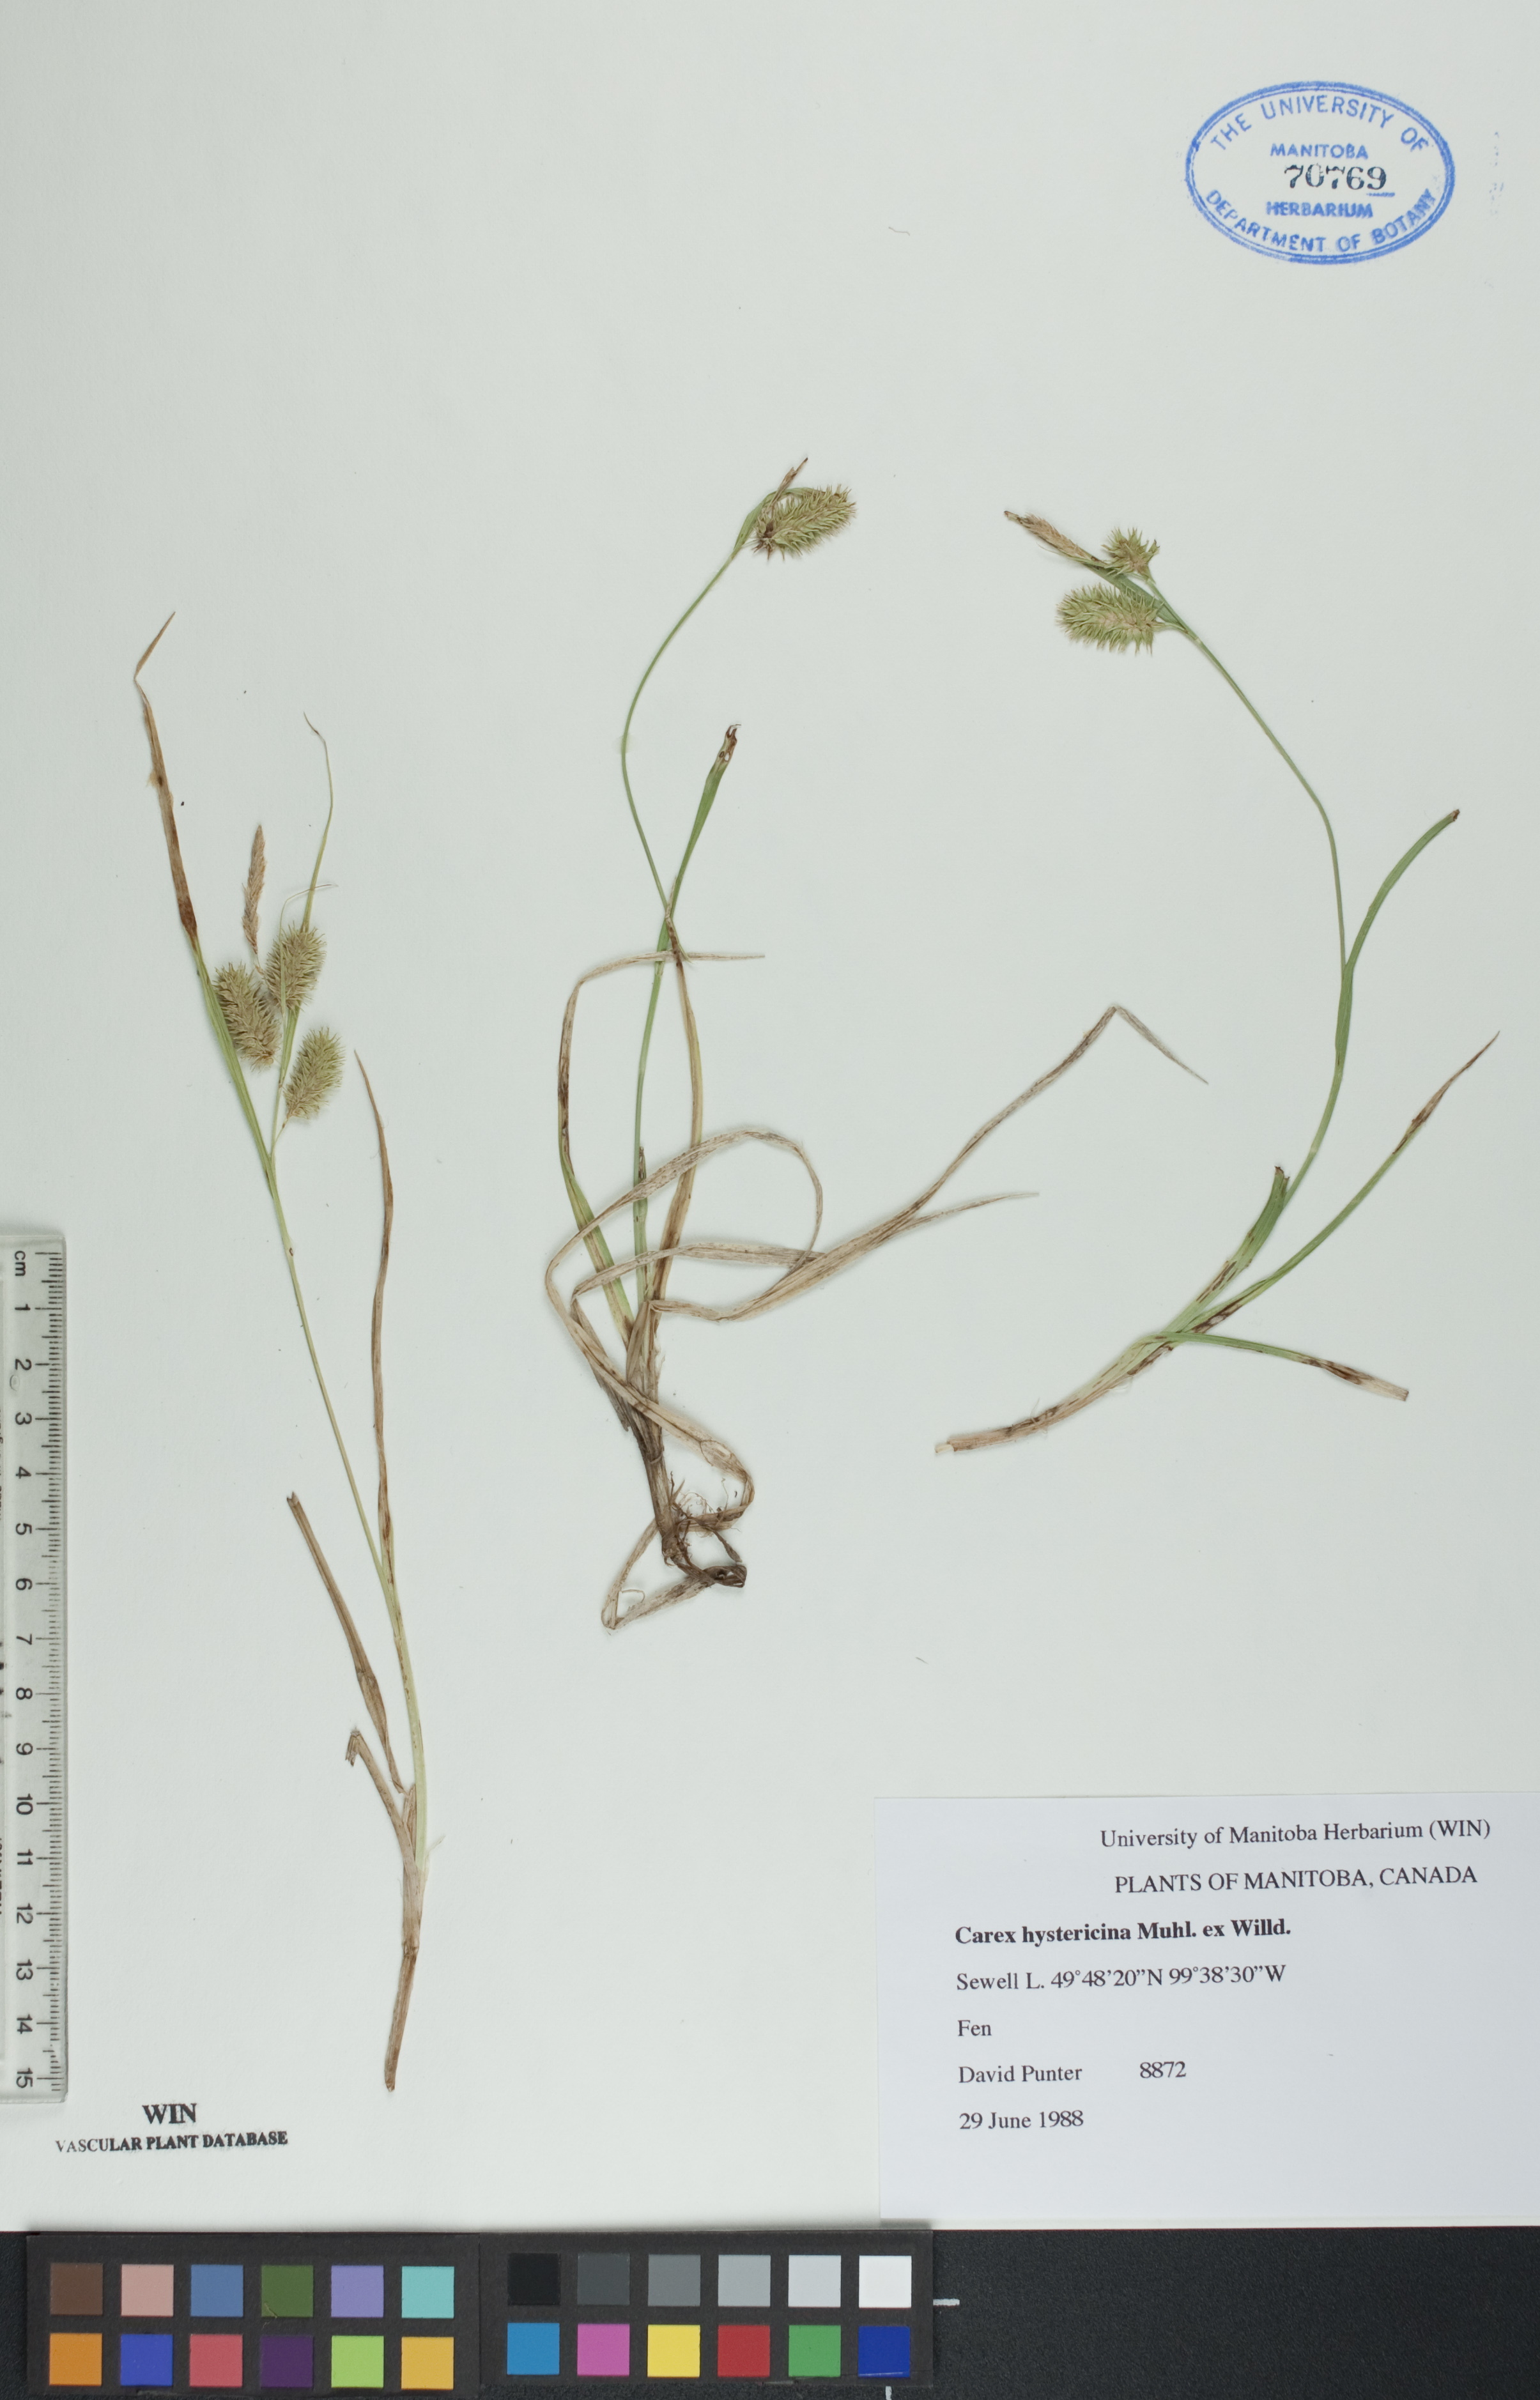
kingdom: Plantae
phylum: Tracheophyta
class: Liliopsida
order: Poales
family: Cyperaceae
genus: Carex
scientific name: Carex hystericina
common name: Bottlebrush sedge
